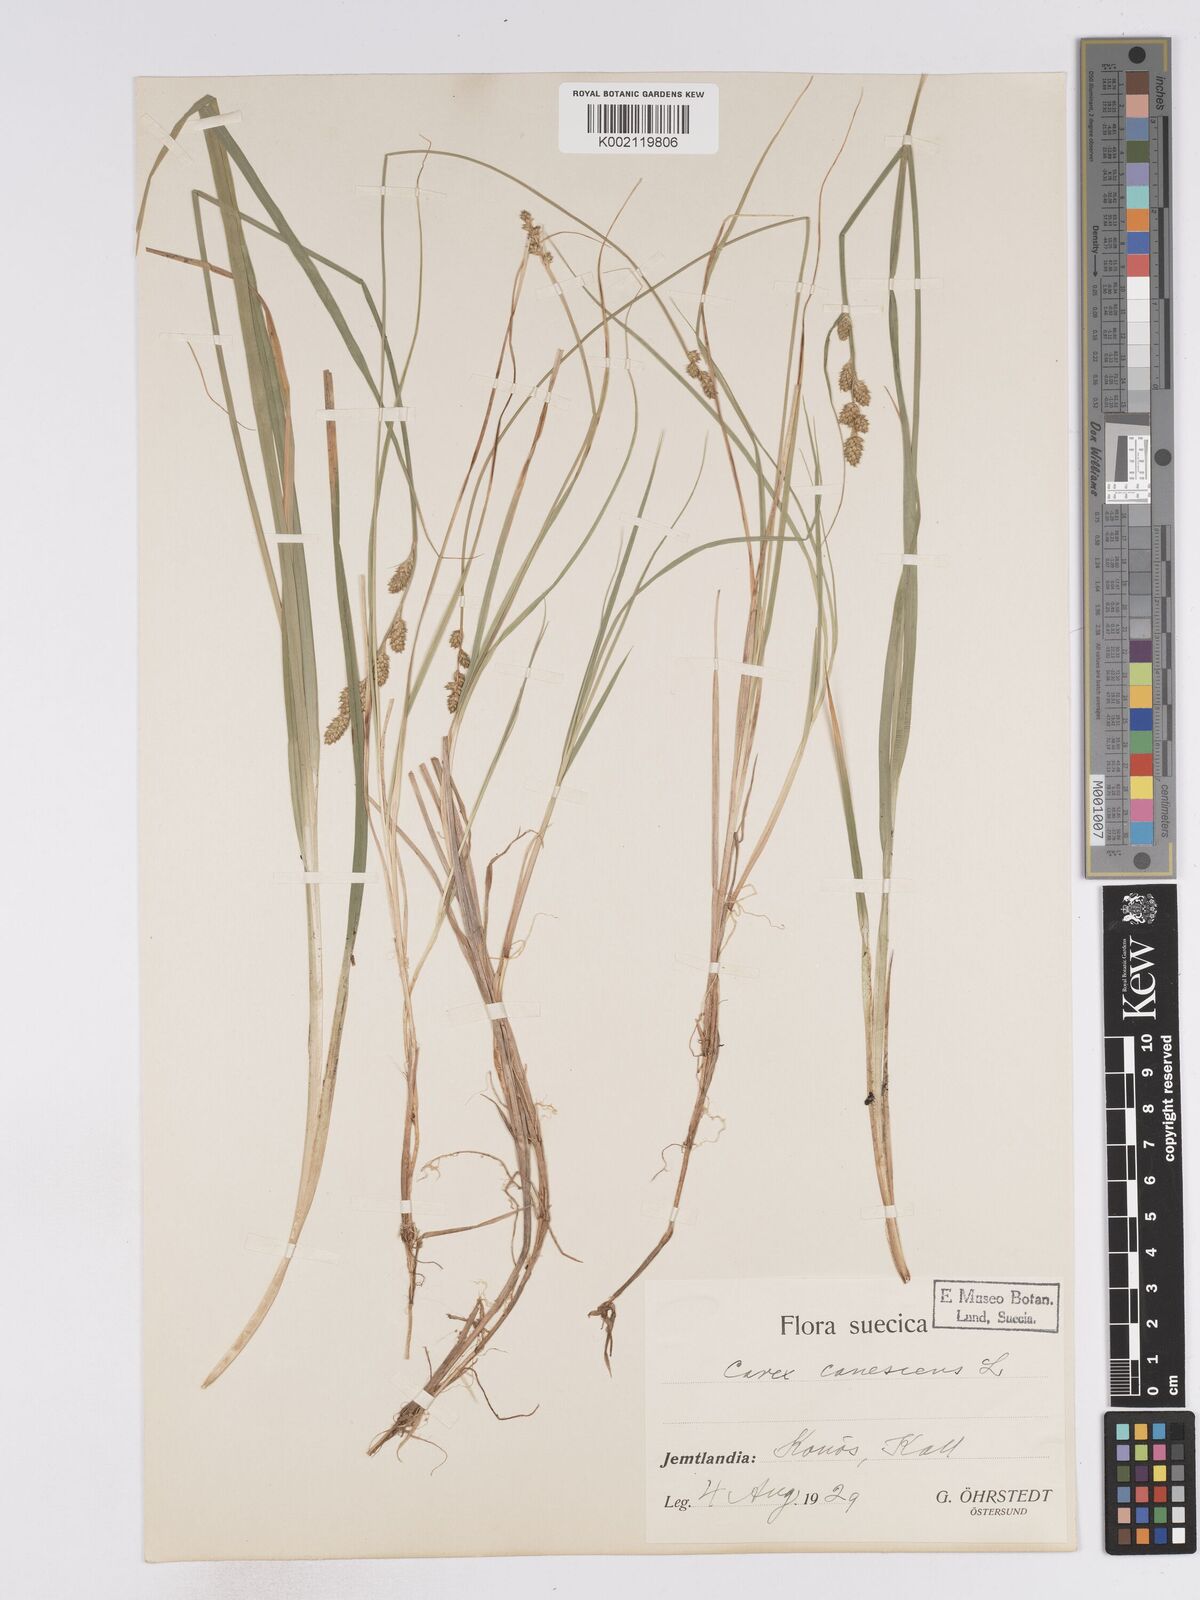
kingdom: Plantae
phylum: Tracheophyta
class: Liliopsida
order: Poales
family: Cyperaceae
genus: Carex
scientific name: Carex curta
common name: White sedge
